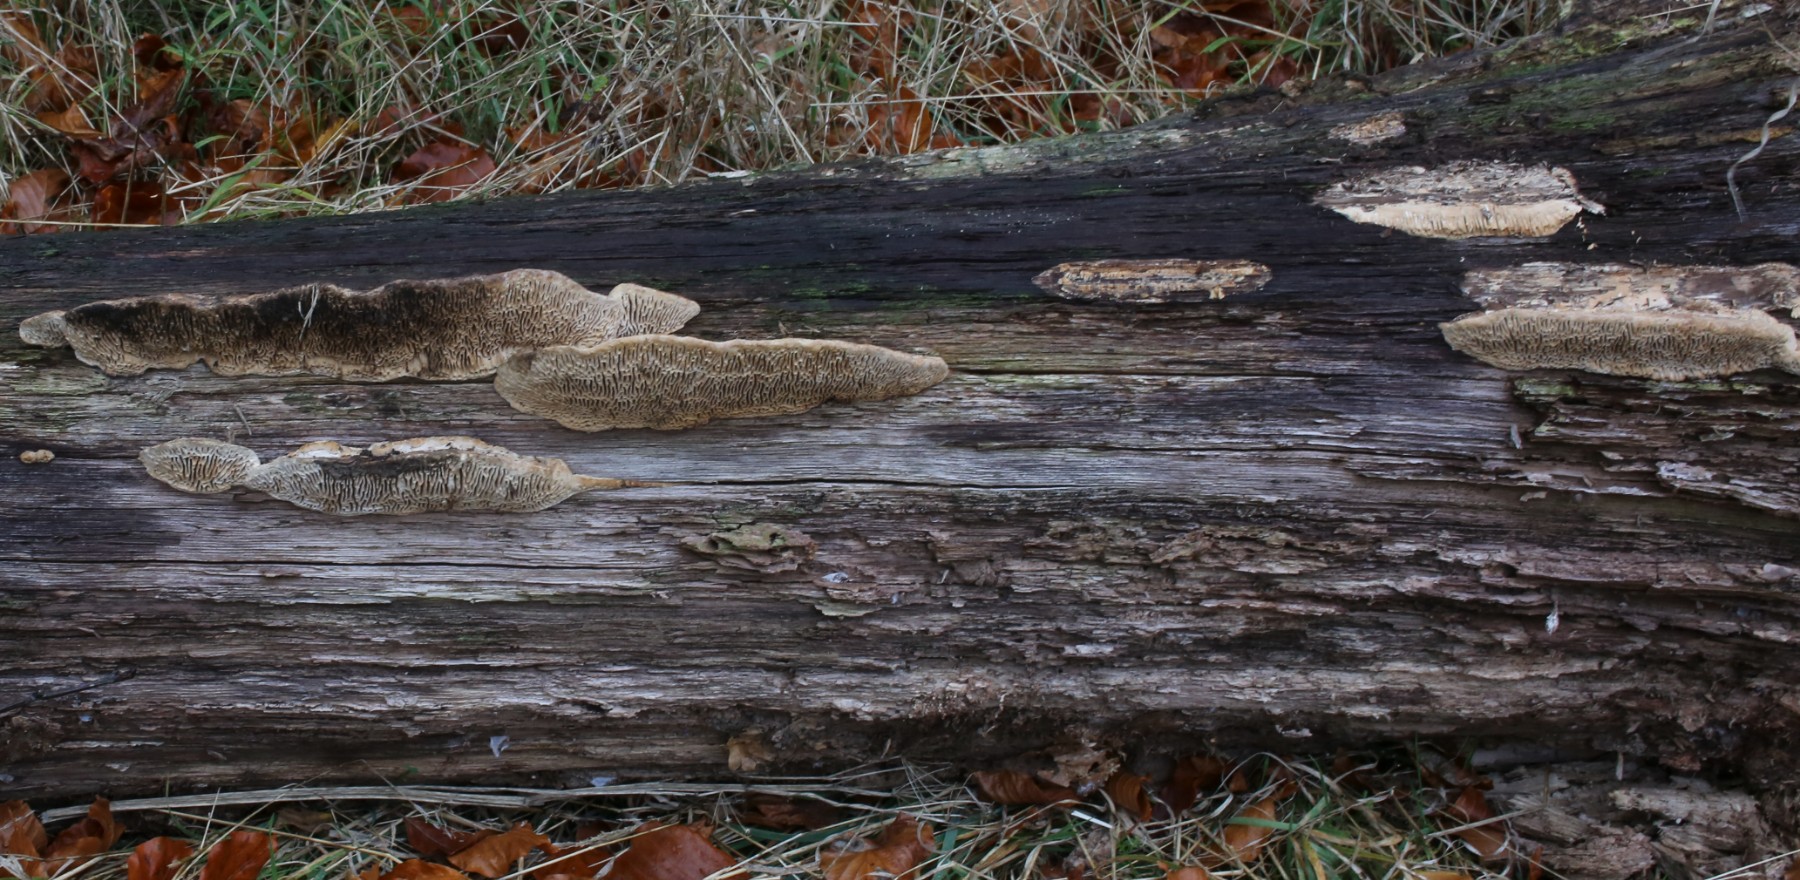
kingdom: Fungi
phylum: Basidiomycota
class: Agaricomycetes
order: Polyporales
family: Fomitopsidaceae
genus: Daedalea
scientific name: Daedalea quercina
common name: ege-labyrintsvamp
